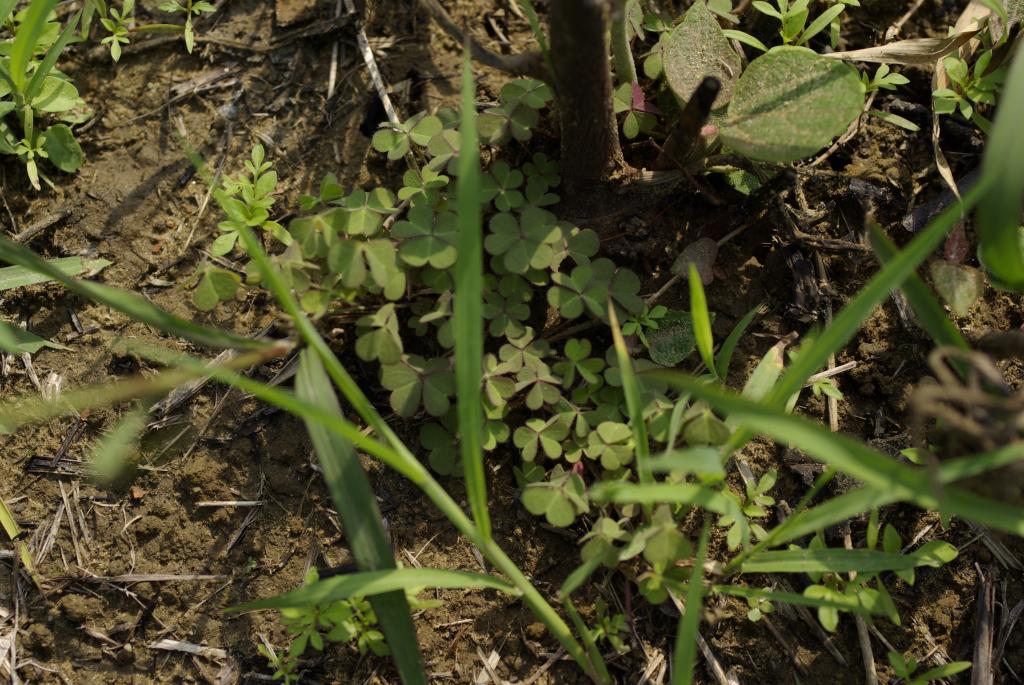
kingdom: Plantae
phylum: Tracheophyta
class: Magnoliopsida
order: Oxalidales
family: Oxalidaceae
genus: Oxalis
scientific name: Oxalis corniculata
